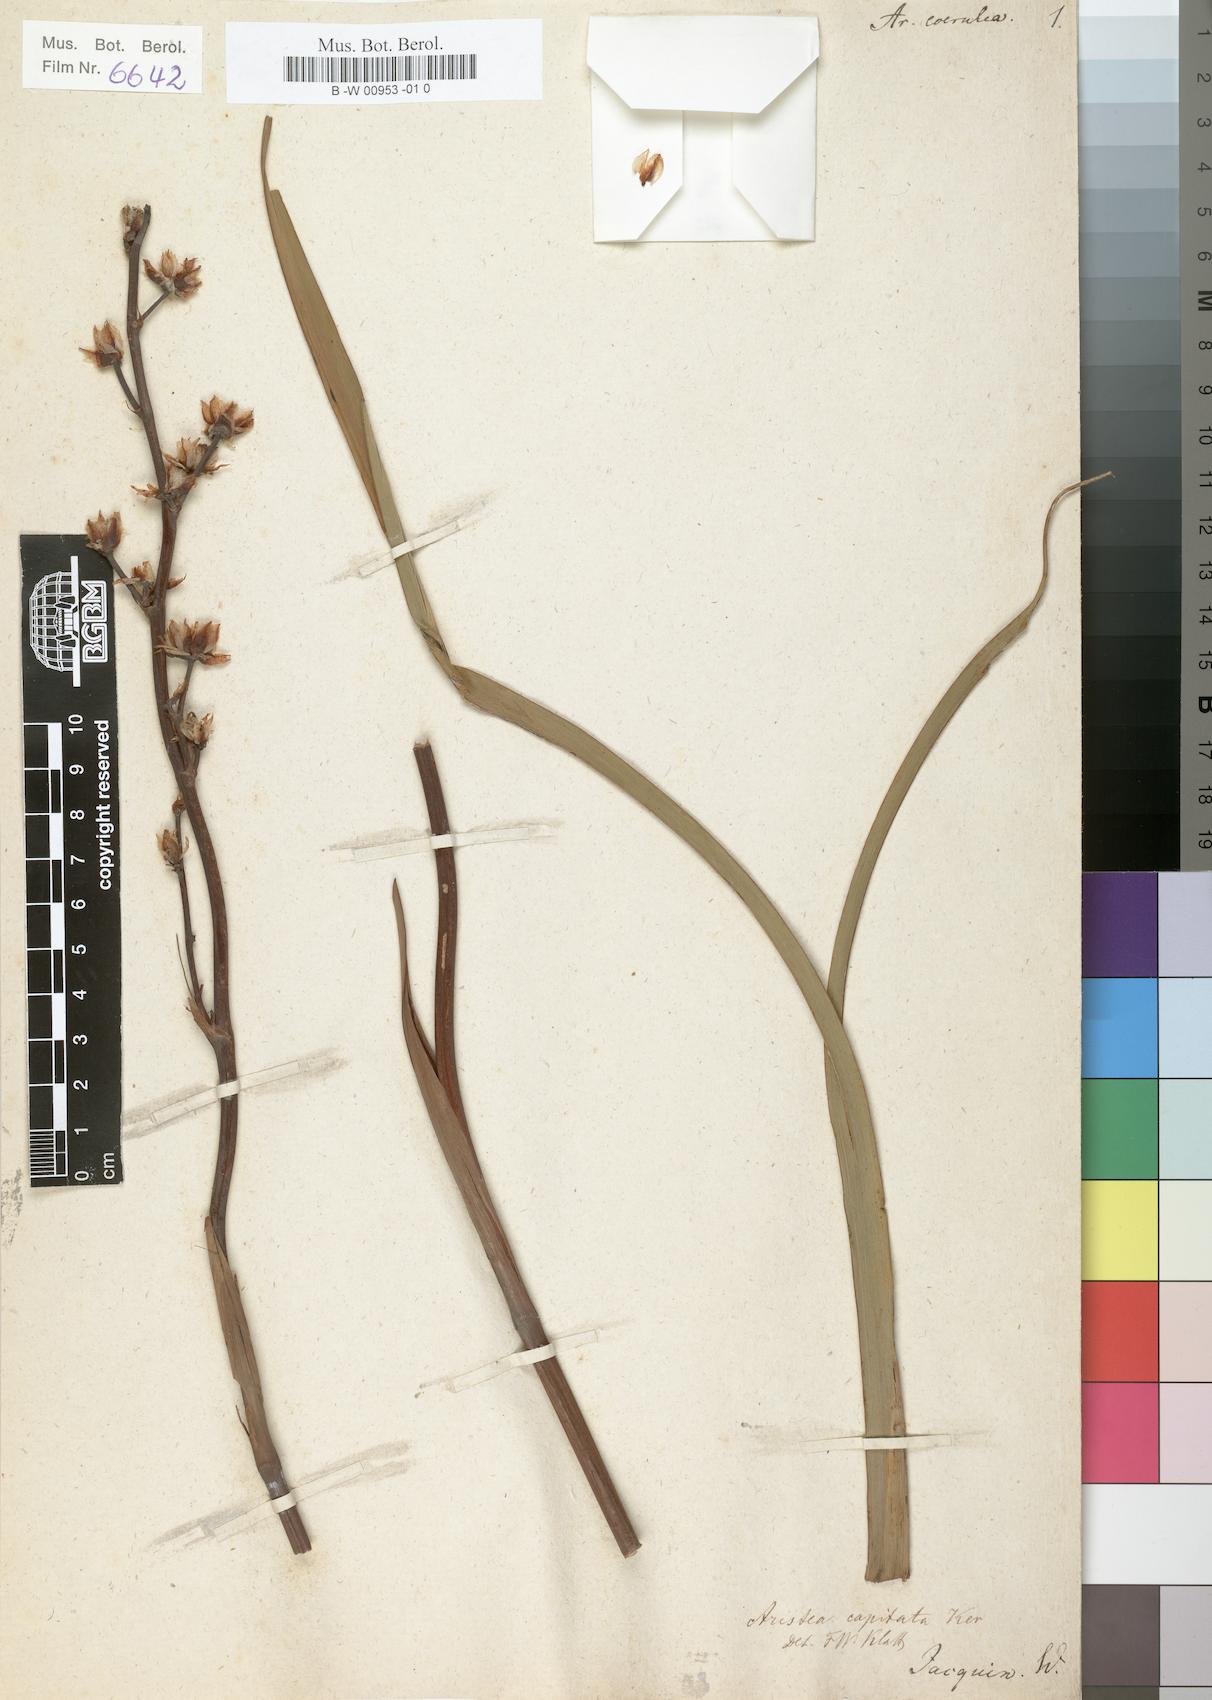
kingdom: Plantae
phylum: Tracheophyta
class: Liliopsida
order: Asparagales
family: Iridaceae
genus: Aristea
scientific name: Aristea capitata
